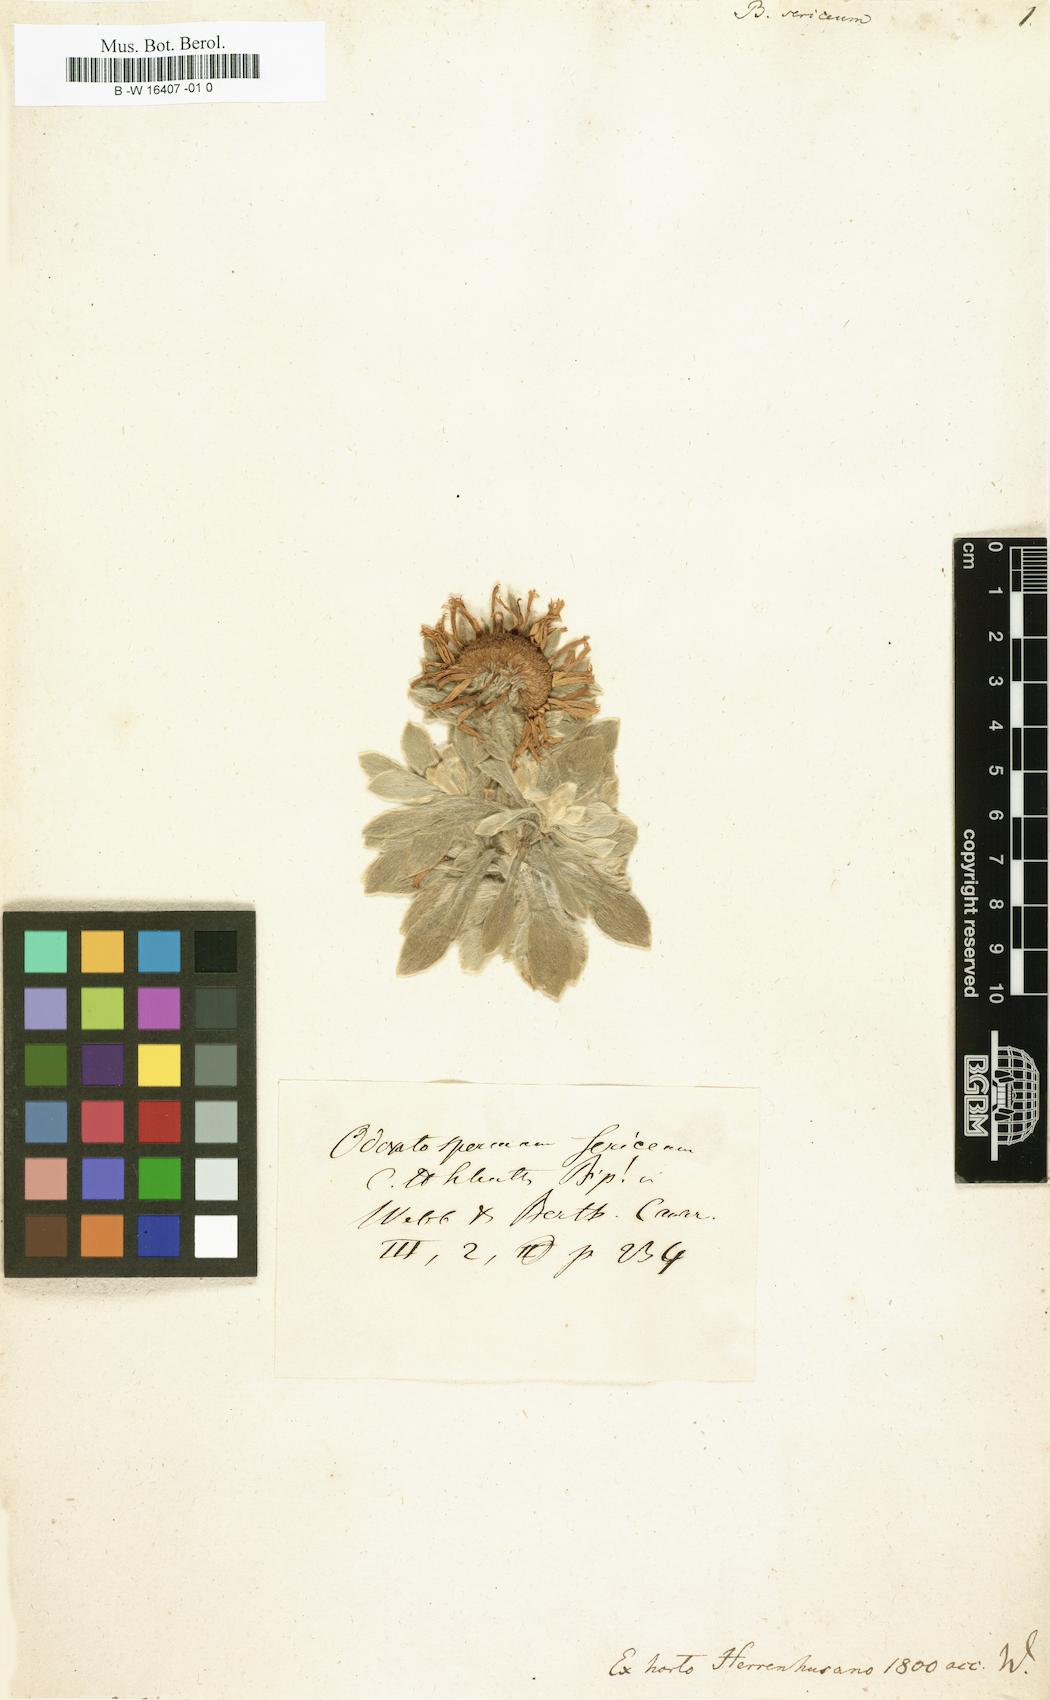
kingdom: Plantae
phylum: Tracheophyta
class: Magnoliopsida
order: Asterales
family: Asteraceae
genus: Asteriscus
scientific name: Asteriscus sericeus
